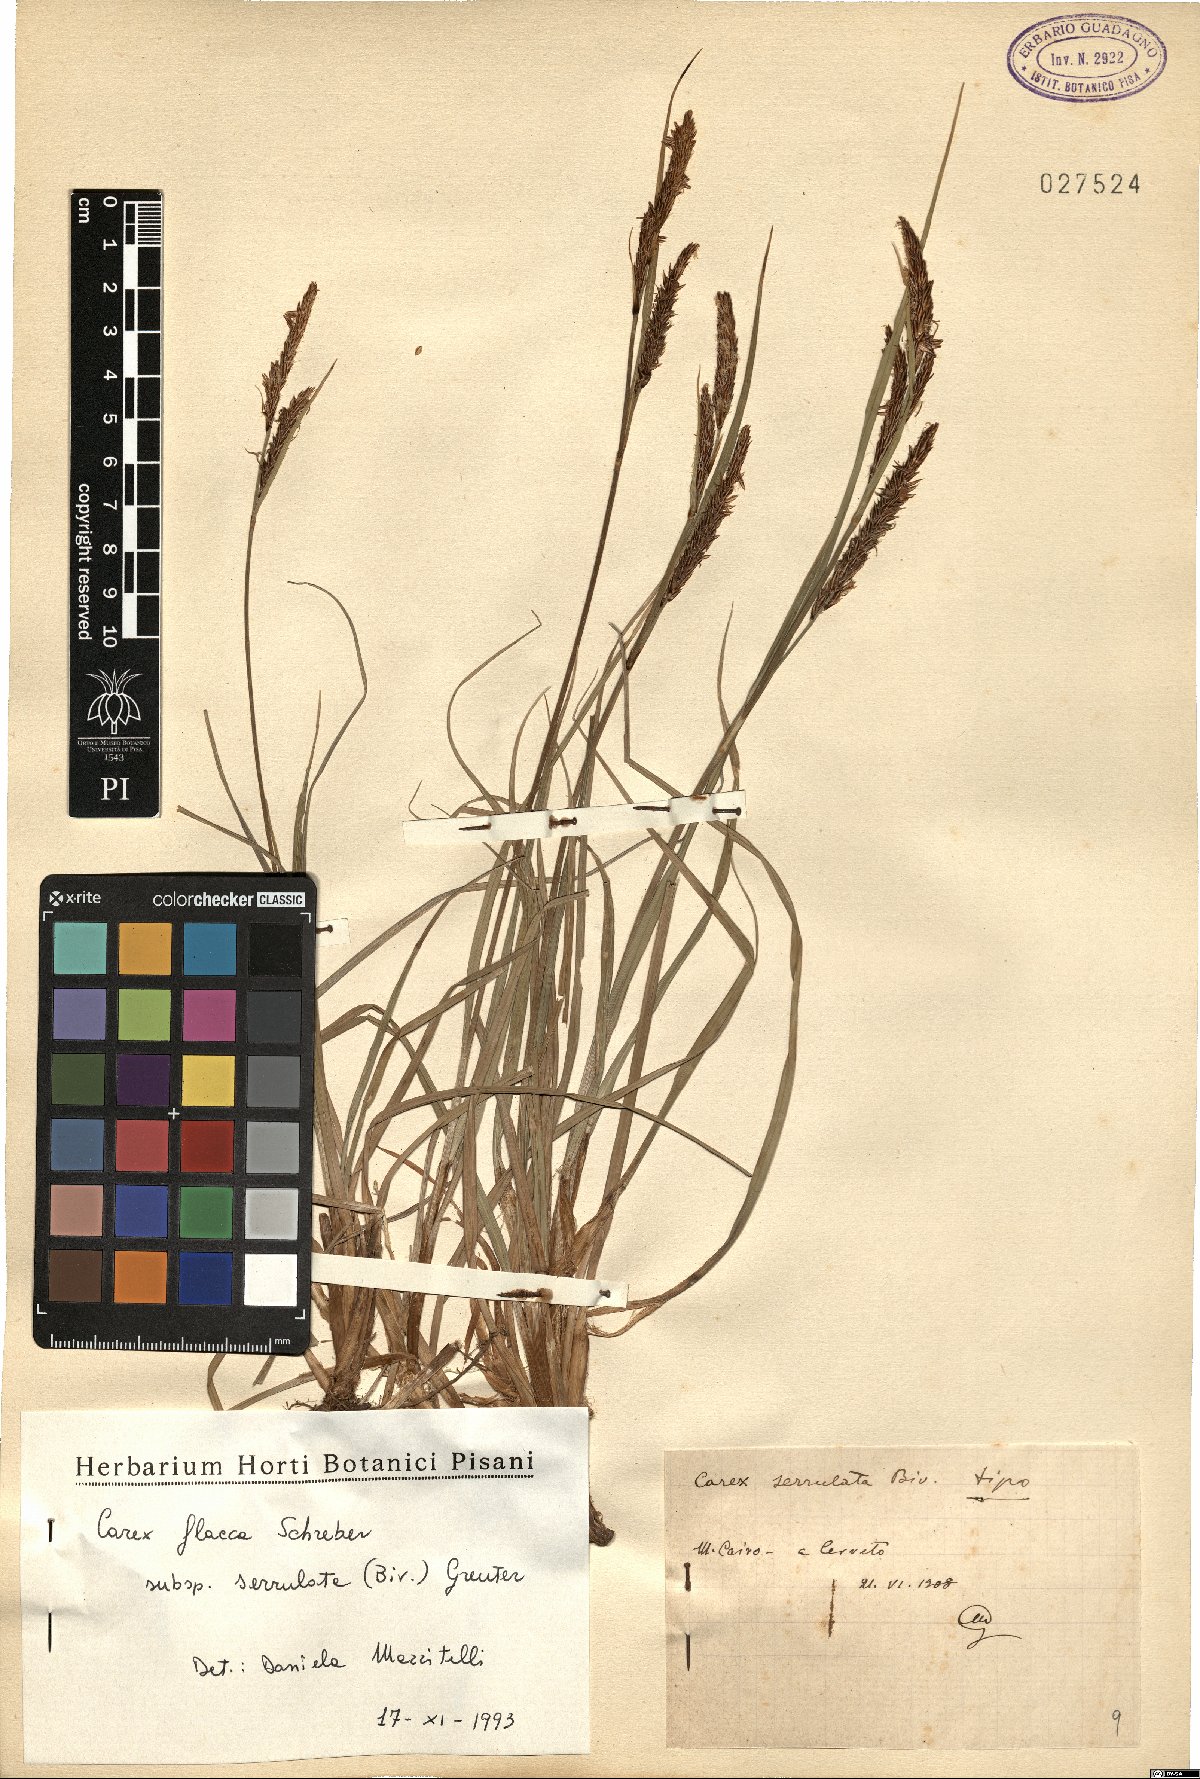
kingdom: Plantae
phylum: Tracheophyta
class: Liliopsida
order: Poales
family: Cyperaceae
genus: Carex
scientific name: Carex flacca
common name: Glaucous sedge
